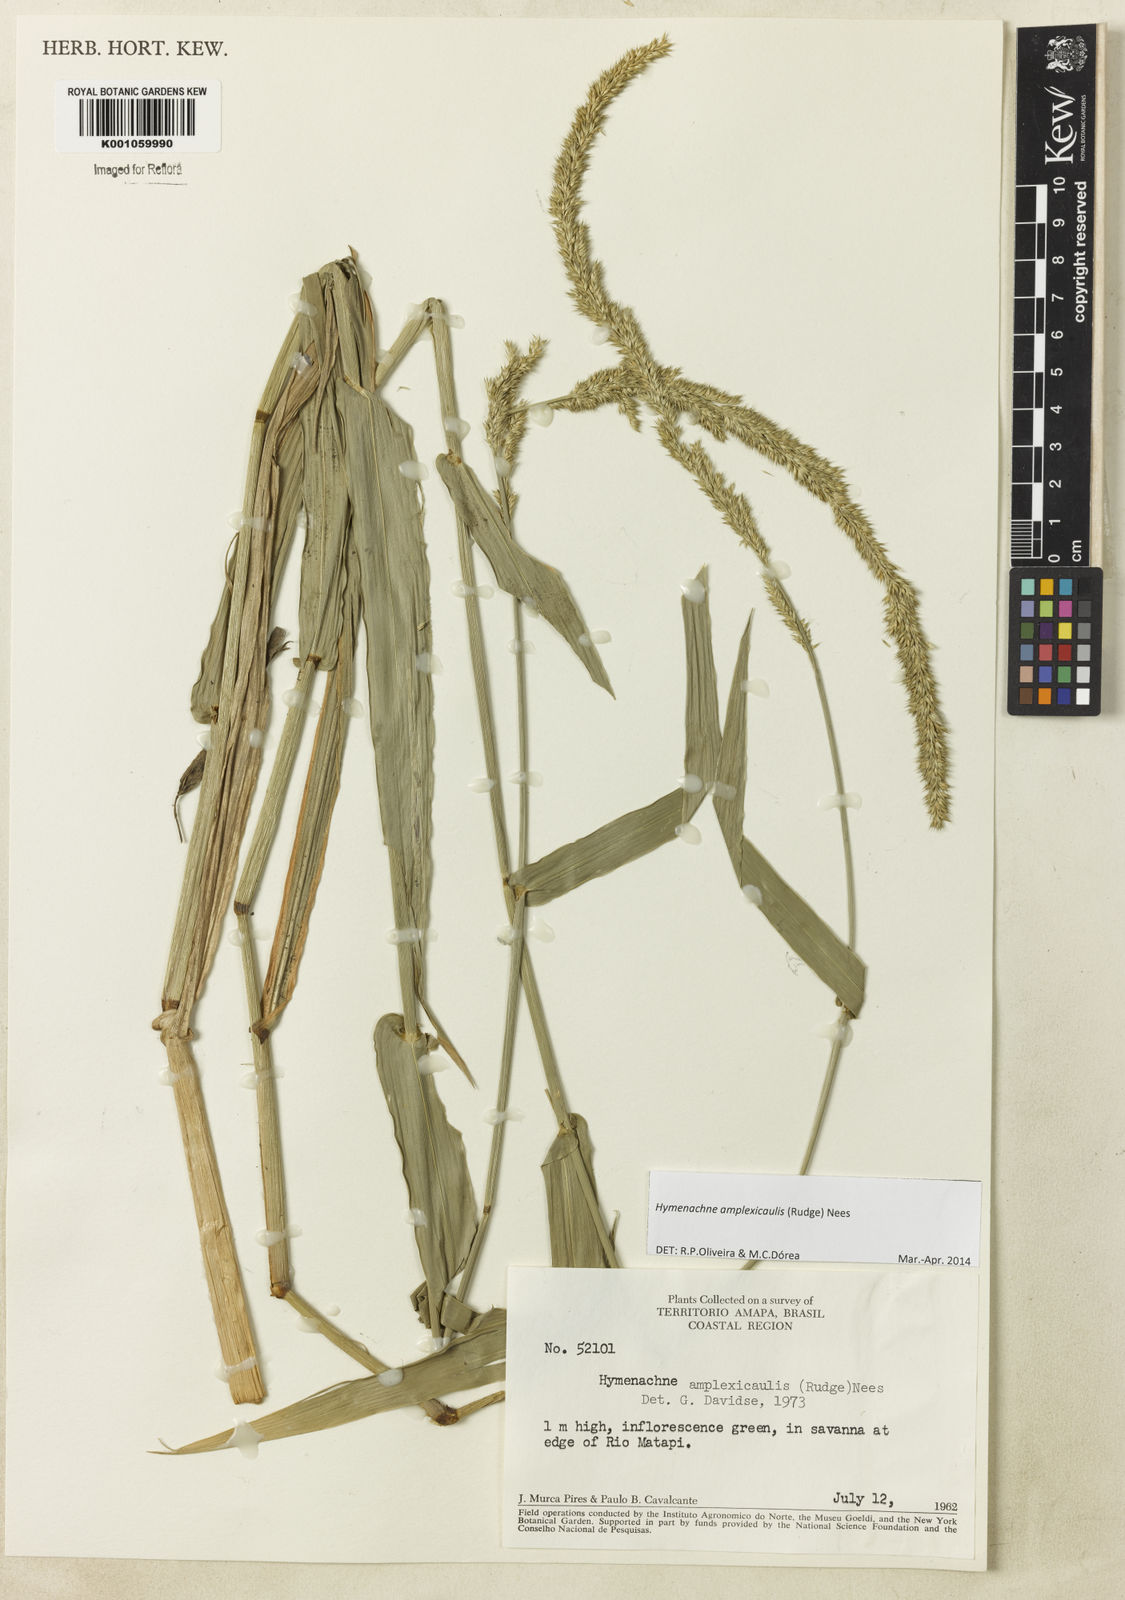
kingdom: Plantae
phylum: Tracheophyta
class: Liliopsida
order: Poales
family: Poaceae
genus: Hymenachne
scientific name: Hymenachne amplexicaulis
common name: Olive hymenachne
